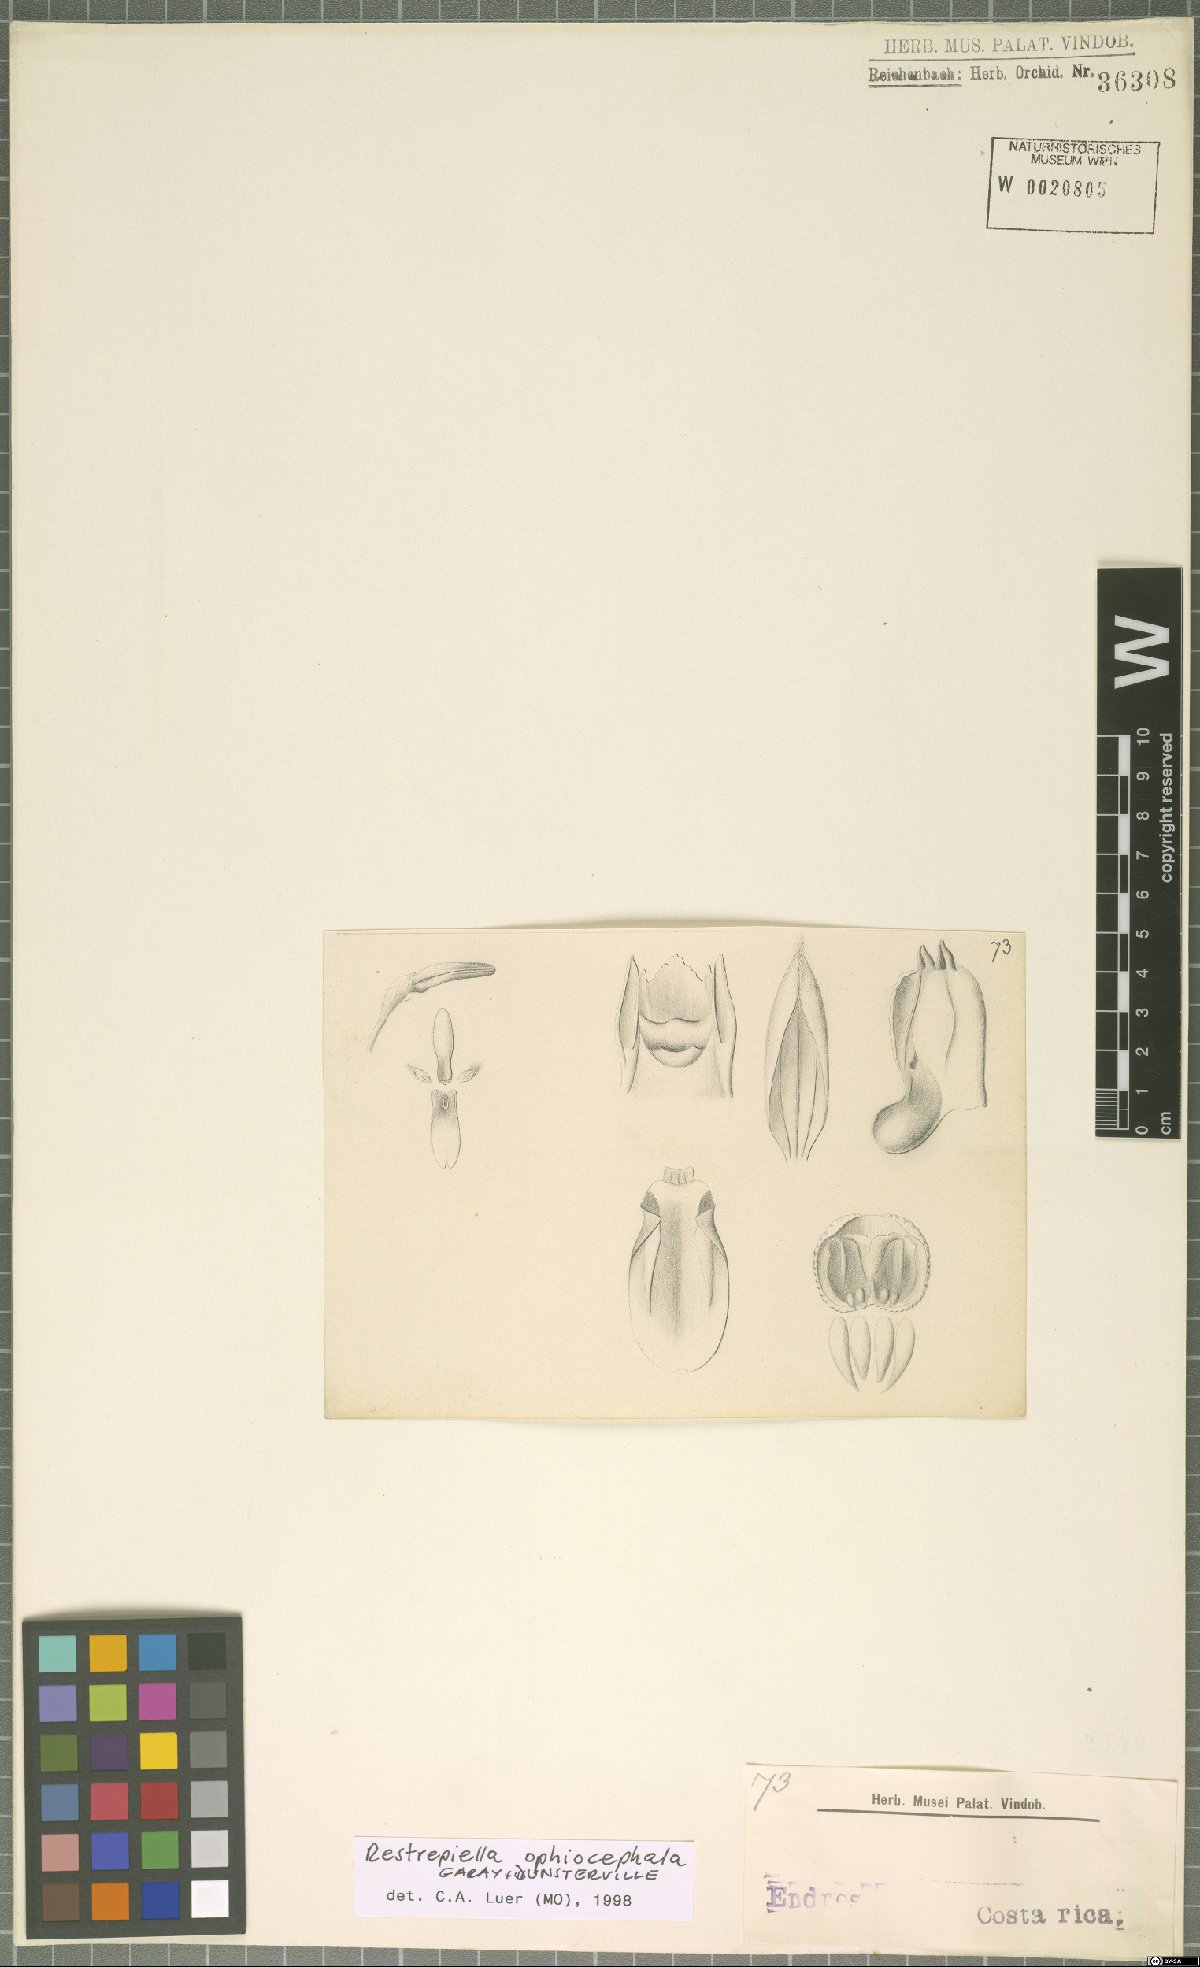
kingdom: Plantae
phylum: Tracheophyta
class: Liliopsida
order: Asparagales
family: Orchidaceae
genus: Restrepiella
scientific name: Restrepiella ophiocephala
